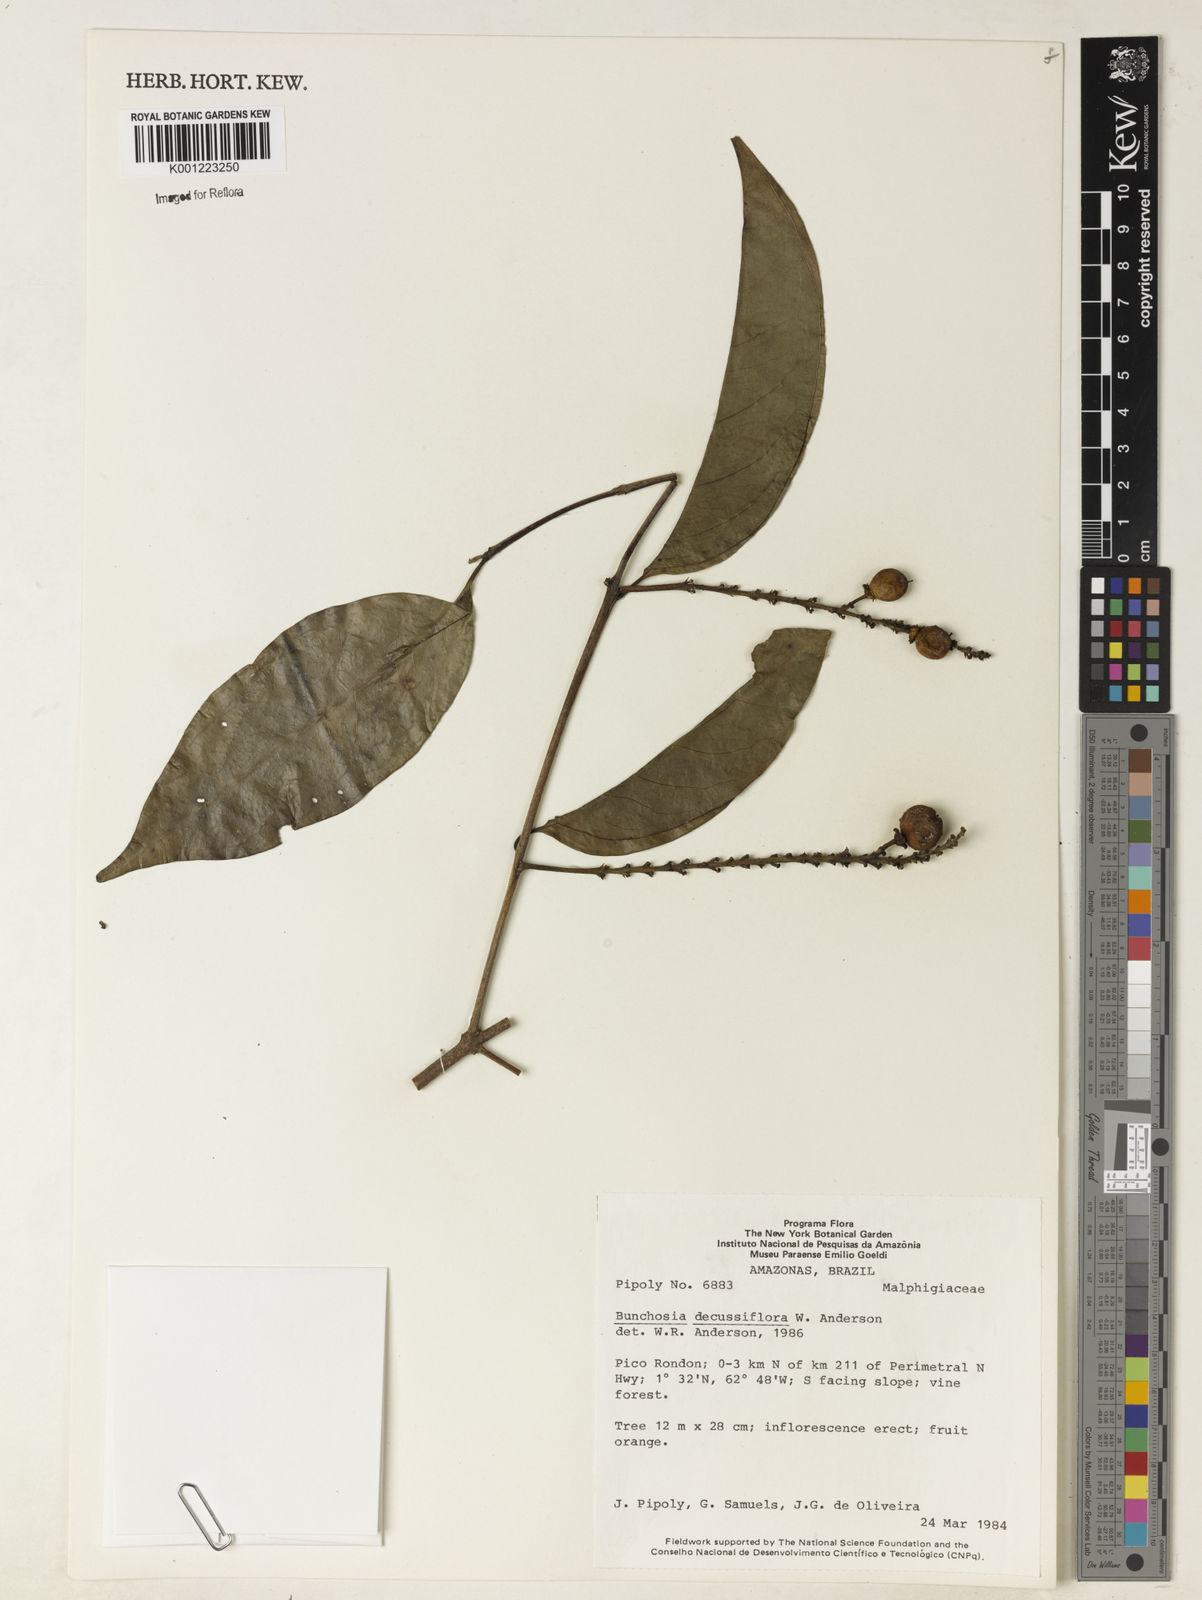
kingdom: Plantae
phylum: Tracheophyta
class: Magnoliopsida
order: Malpighiales
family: Malpighiaceae
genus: Bunchosia
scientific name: Bunchosia decussiflora
